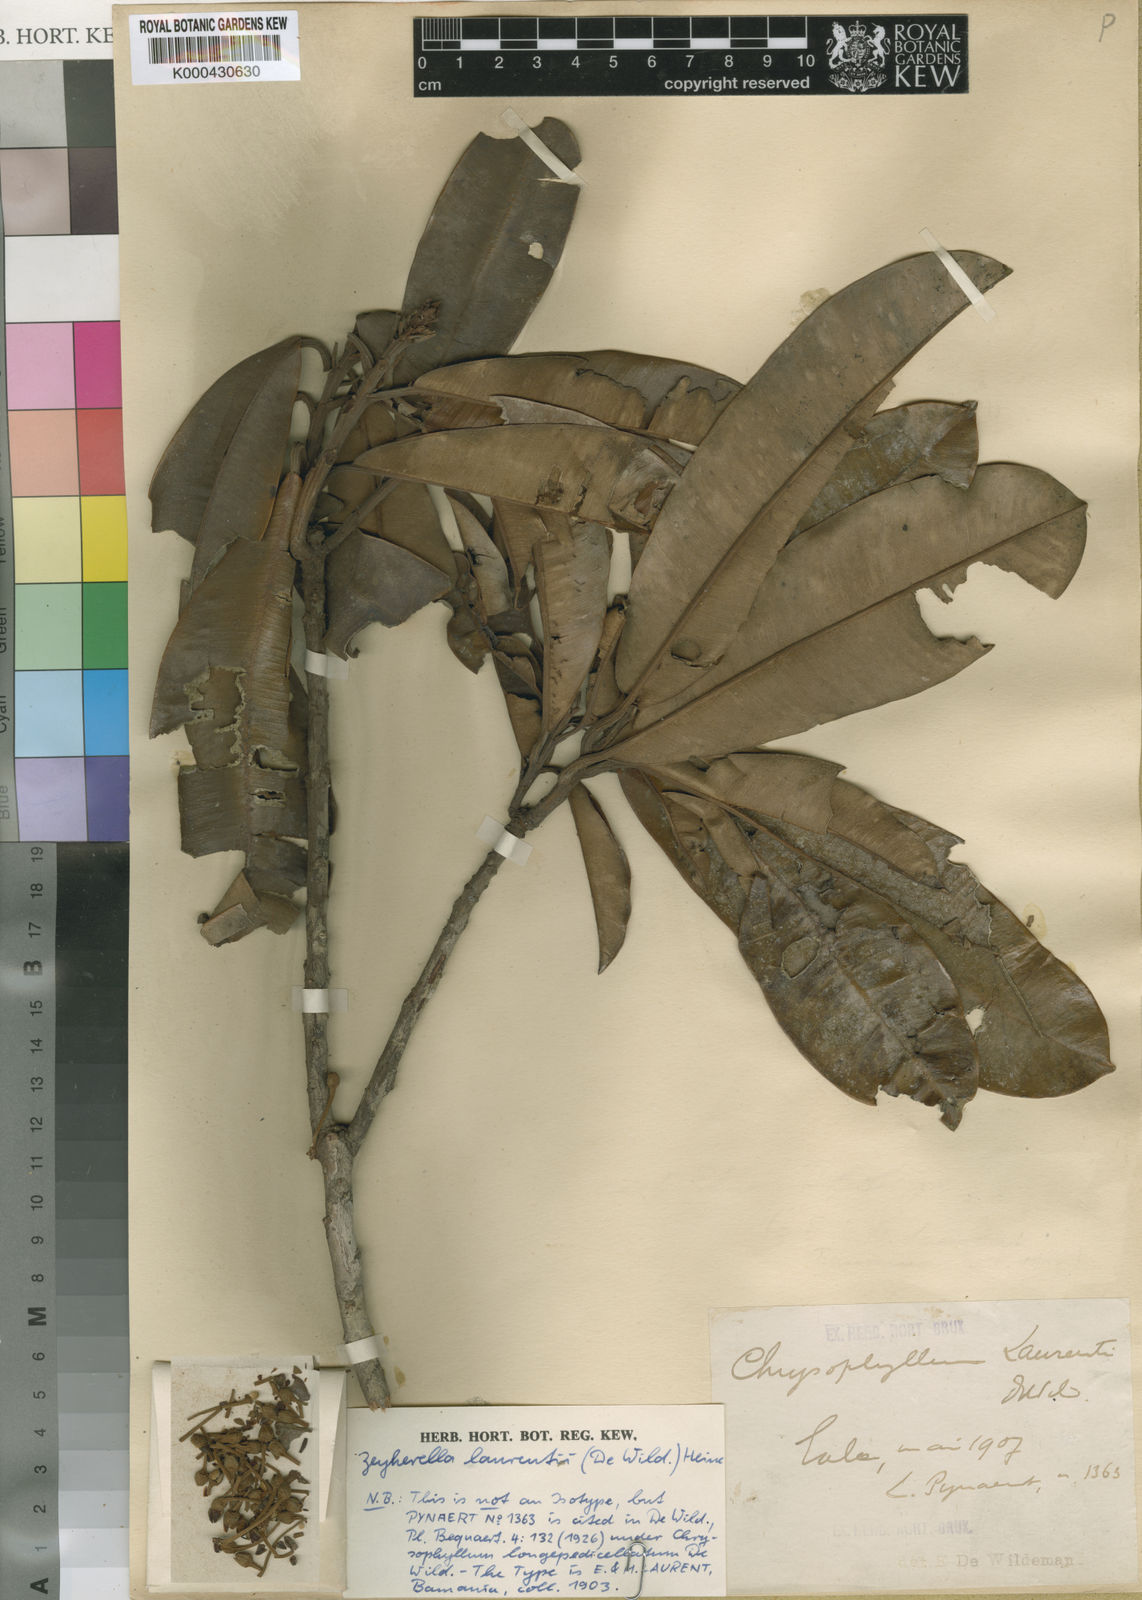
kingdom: Plantae
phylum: Tracheophyta
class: Magnoliopsida
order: Ericales
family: Sapotaceae
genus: Englerophytum
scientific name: Englerophytum magalismontanum
